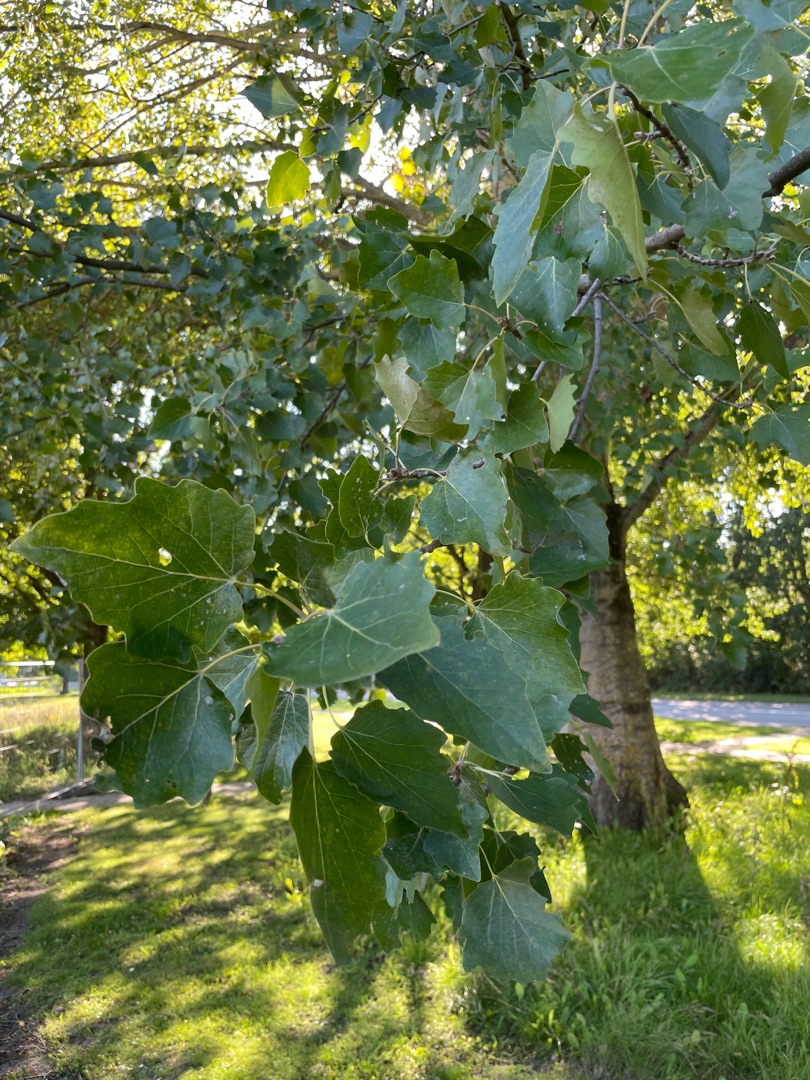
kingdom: Plantae
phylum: Tracheophyta
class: Magnoliopsida
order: Malpighiales
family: Salicaceae
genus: Populus
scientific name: Populus canescens
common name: Grå-poppel
